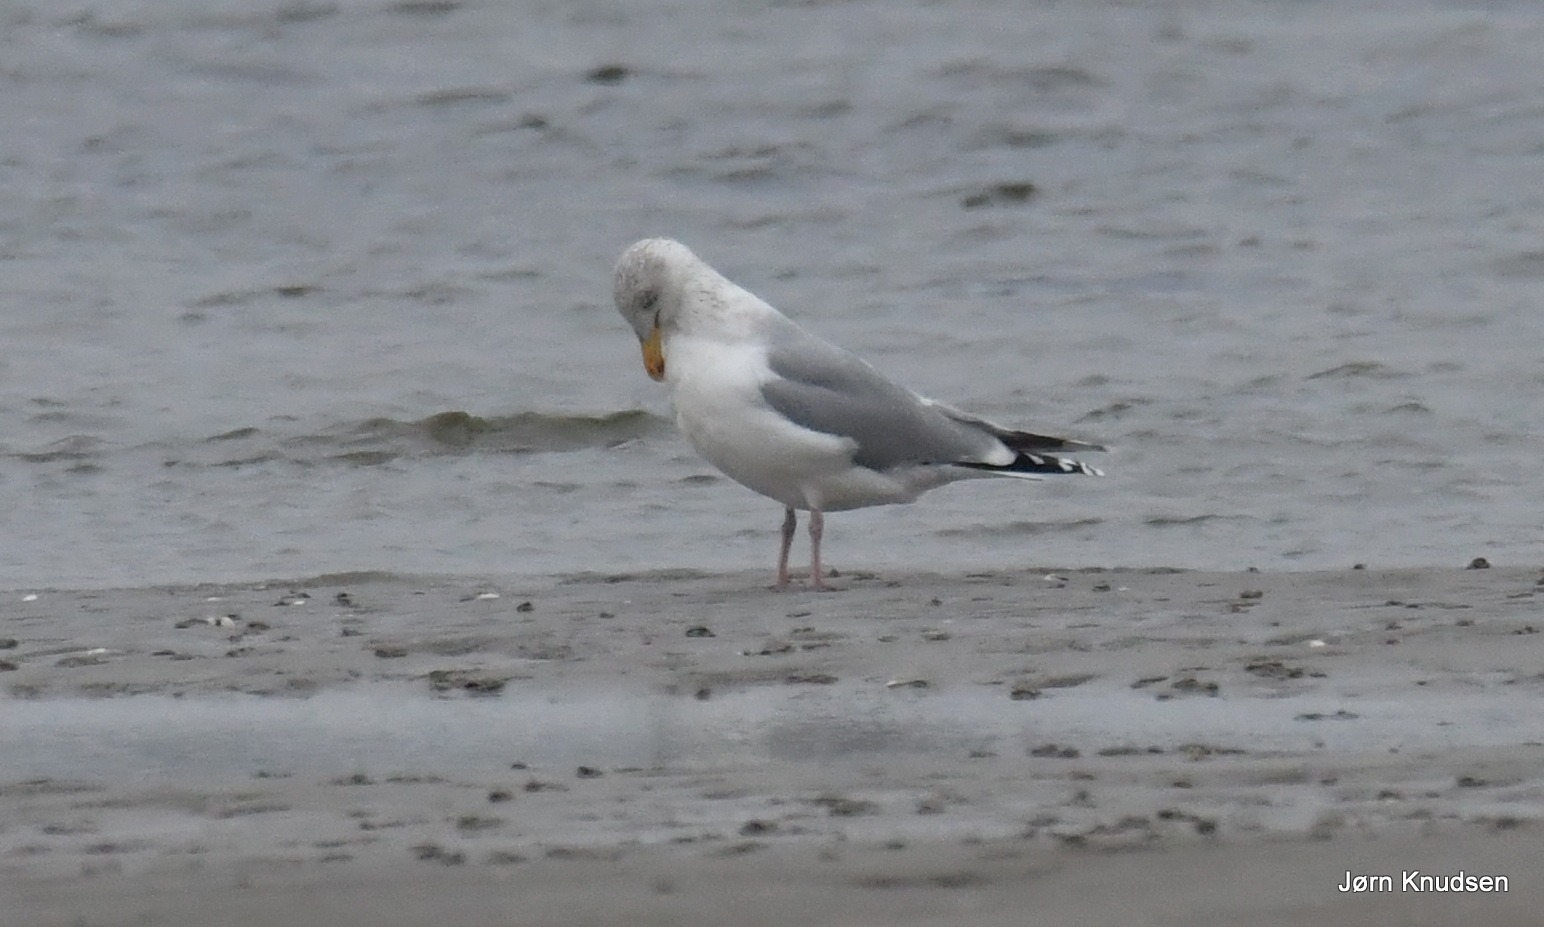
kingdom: Animalia
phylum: Chordata
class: Aves
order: Charadriiformes
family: Laridae
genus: Larus
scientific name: Larus argentatus
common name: Sølvmåge
